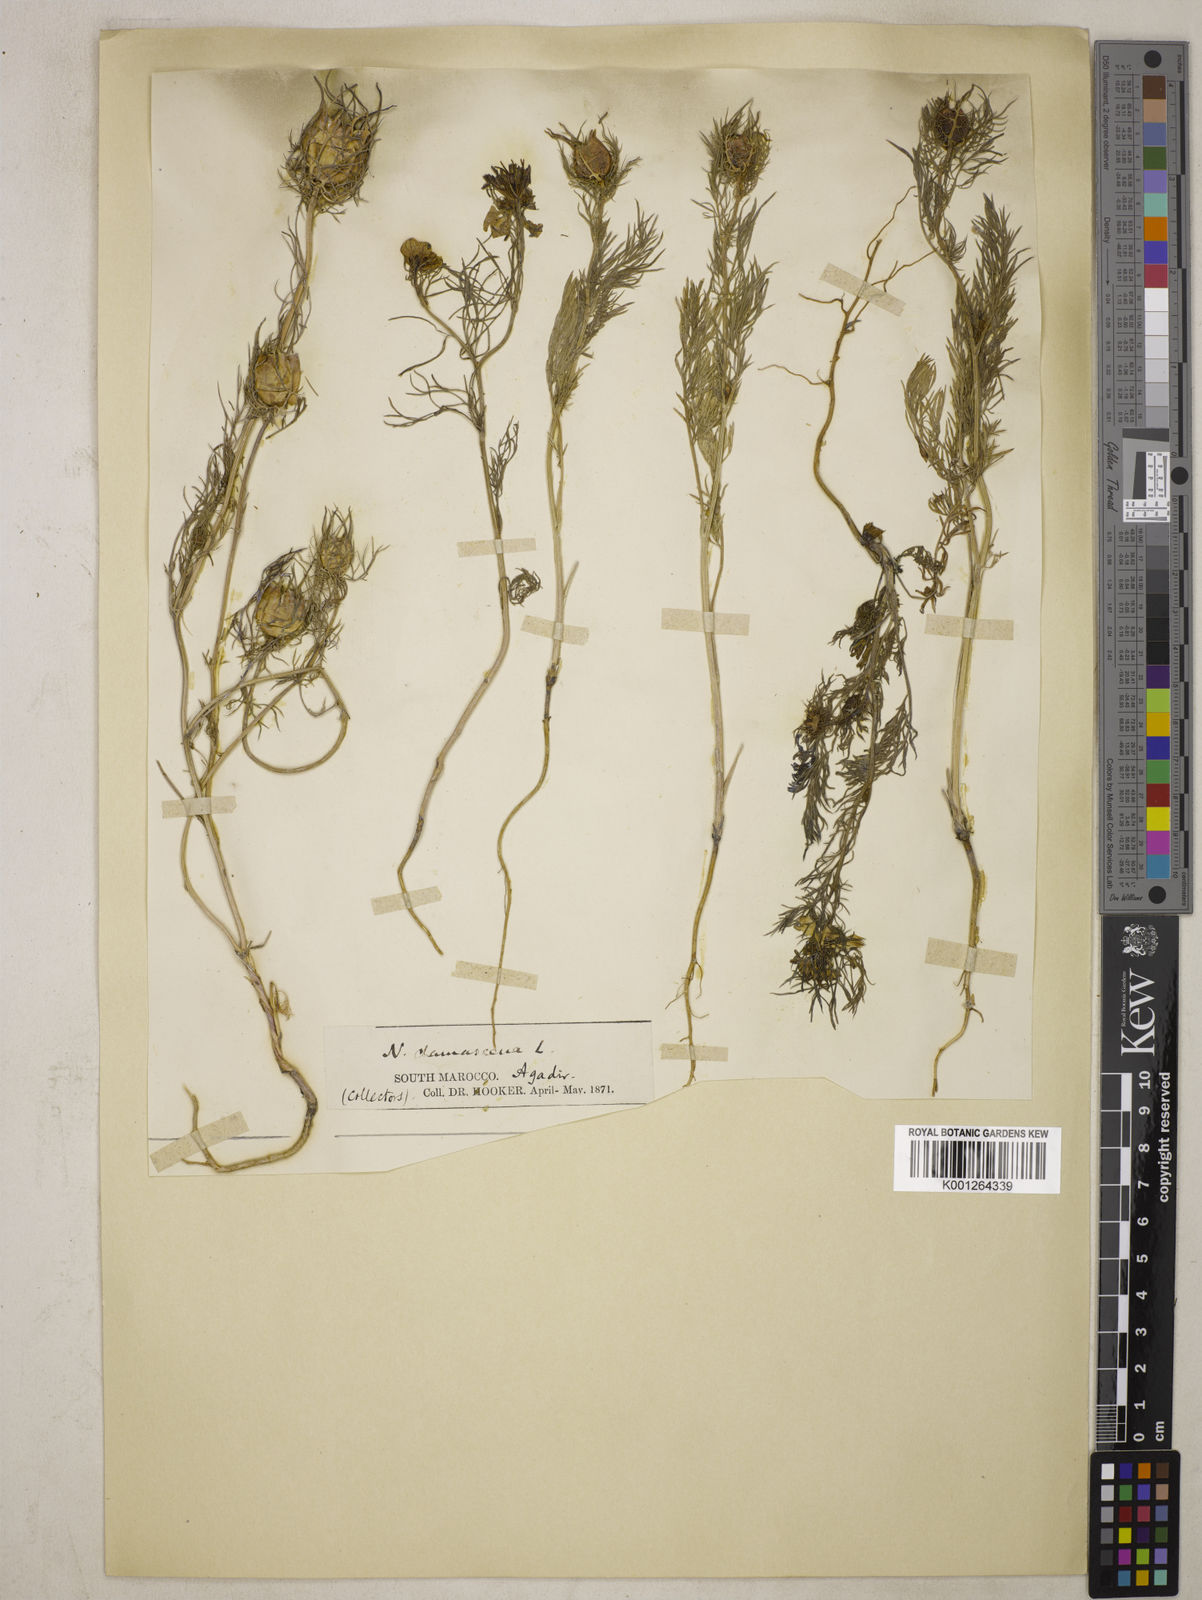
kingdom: Plantae
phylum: Tracheophyta
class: Magnoliopsida
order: Ranunculales
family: Ranunculaceae
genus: Nigella
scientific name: Nigella damascena
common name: Love-in-a-mist
